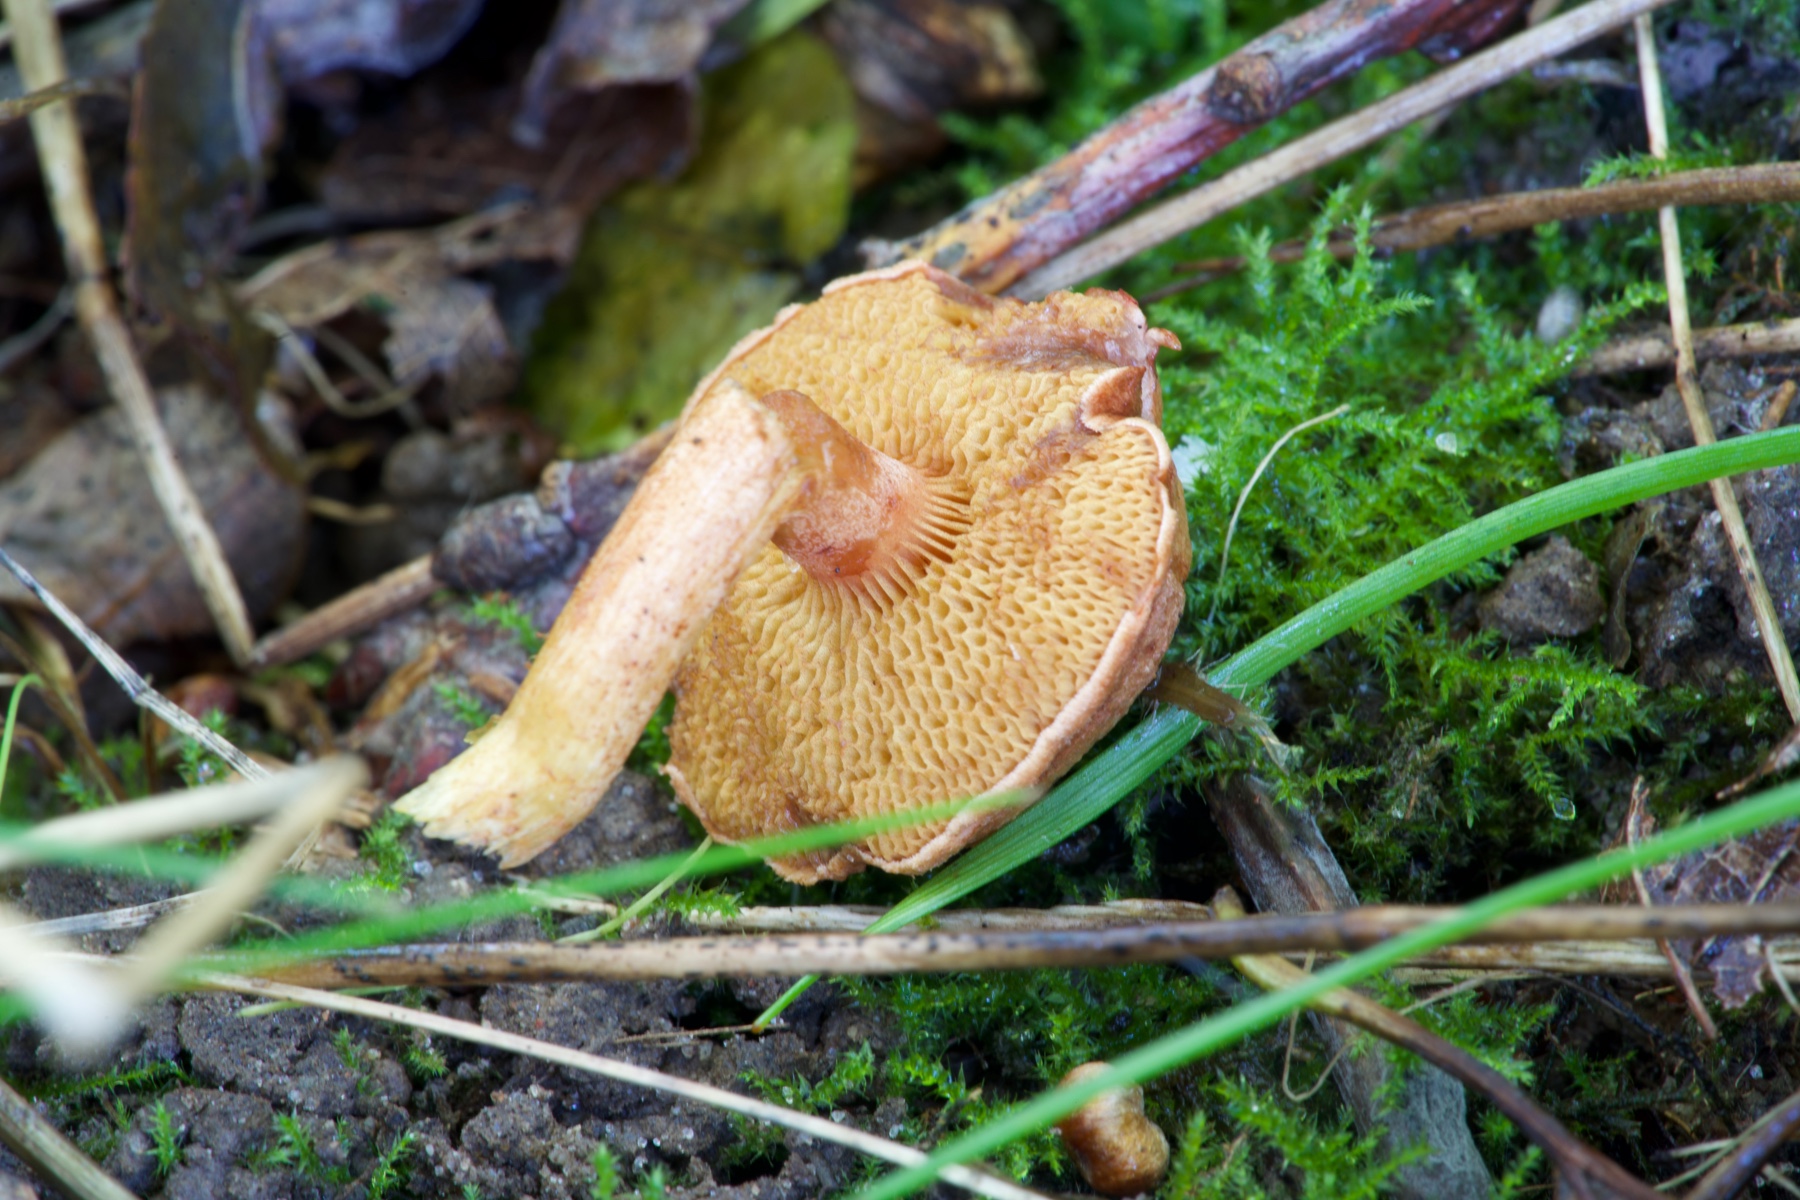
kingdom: Fungi
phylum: Basidiomycota
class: Agaricomycetes
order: Boletales
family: Boletaceae
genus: Chalciporus
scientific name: Chalciporus piperatus
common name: peberrørhat
